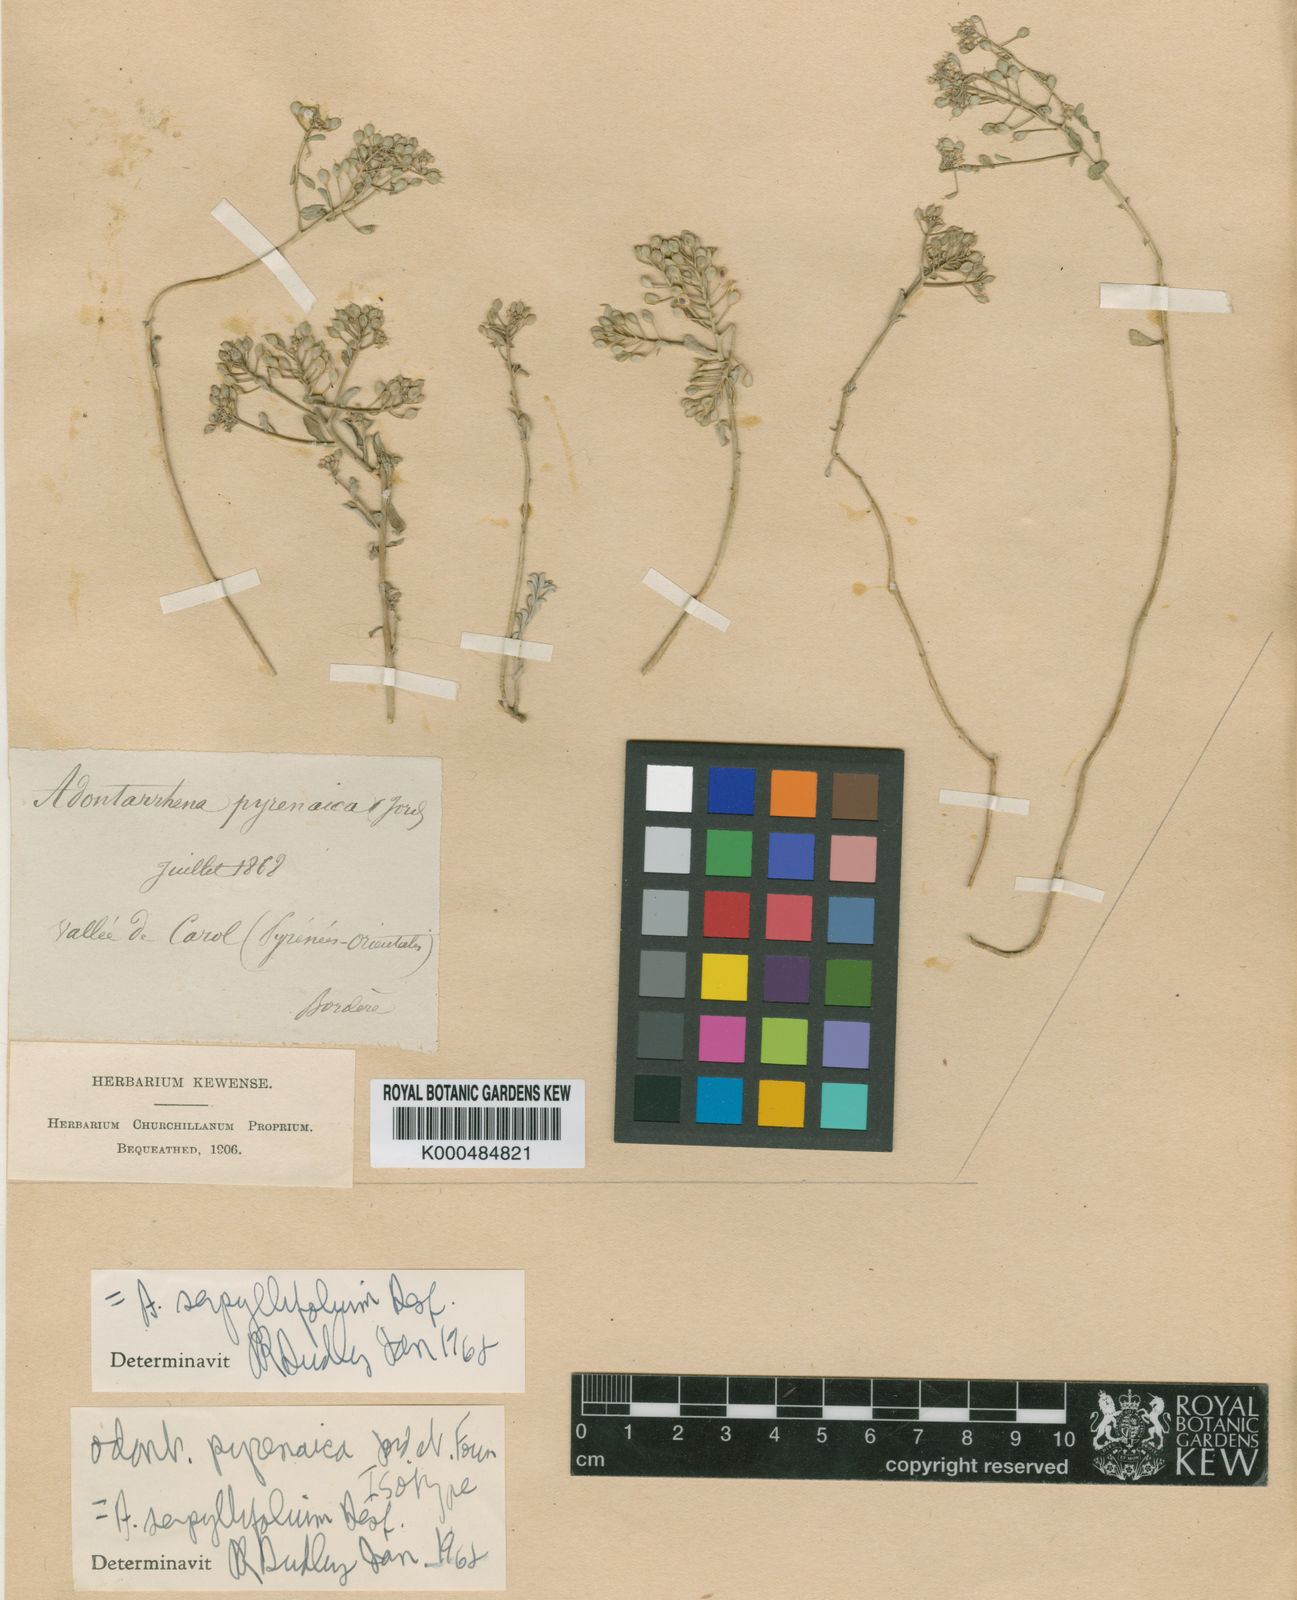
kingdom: Plantae
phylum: Tracheophyta
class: Magnoliopsida
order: Brassicales
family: Brassicaceae
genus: Odontarrhena
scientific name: Odontarrhena serpyllifolia
